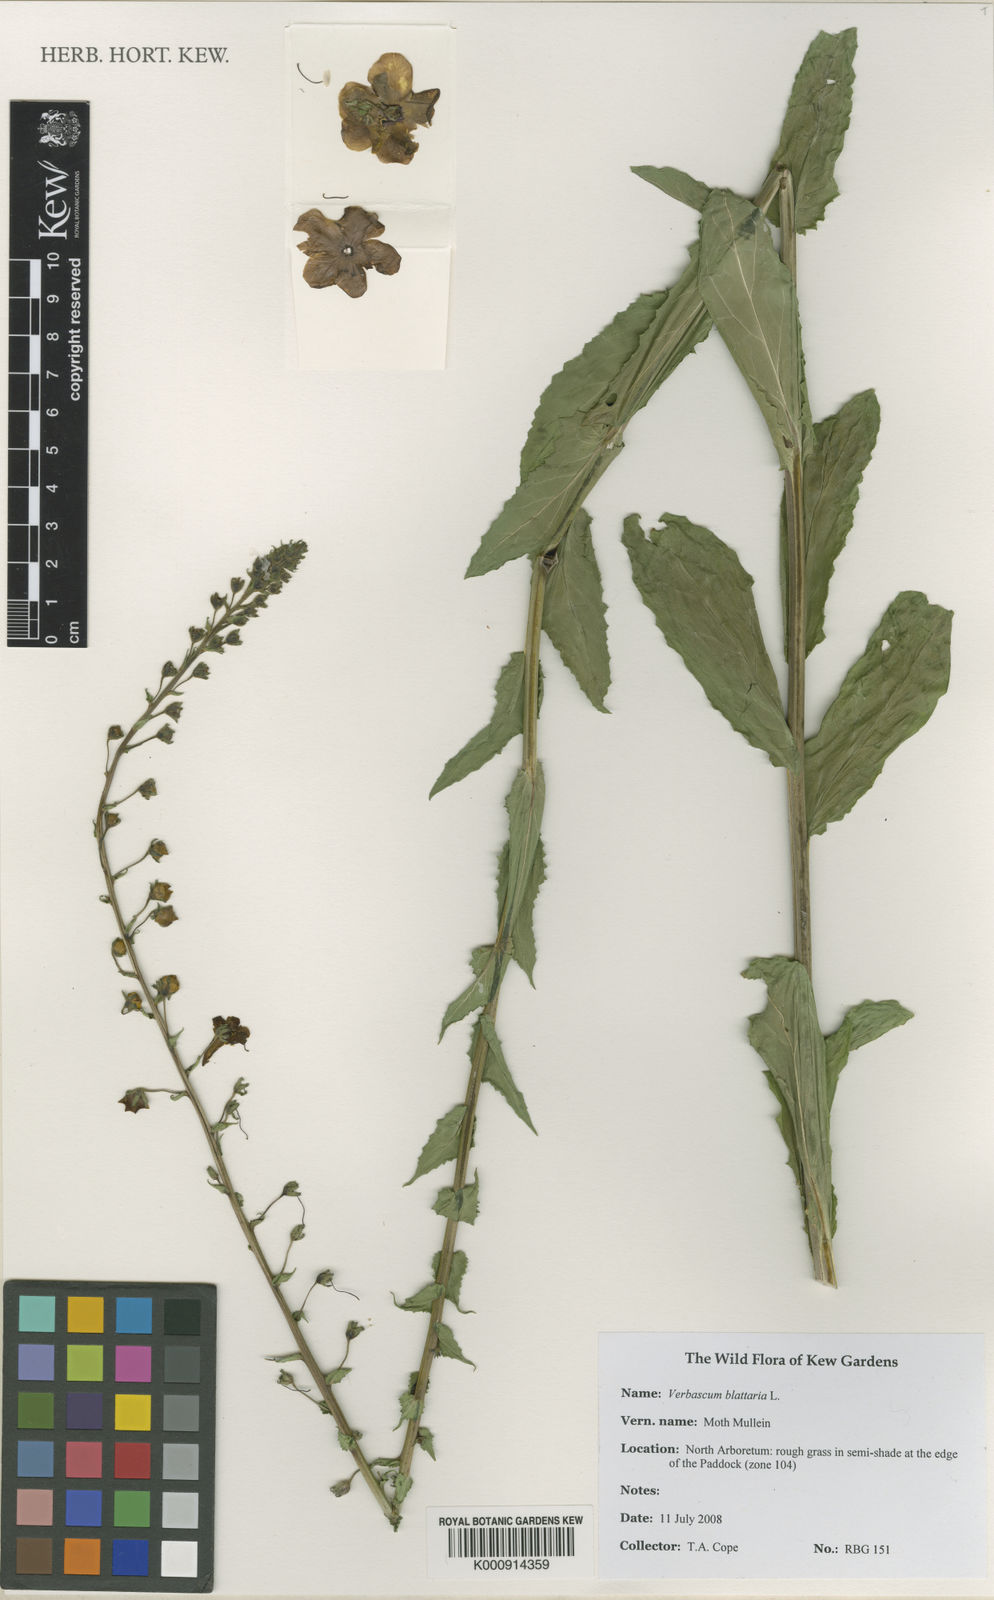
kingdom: Plantae
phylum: Tracheophyta
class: Magnoliopsida
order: Lamiales
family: Scrophulariaceae
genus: Verbascum
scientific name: Verbascum blattaria
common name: Moth mullein
